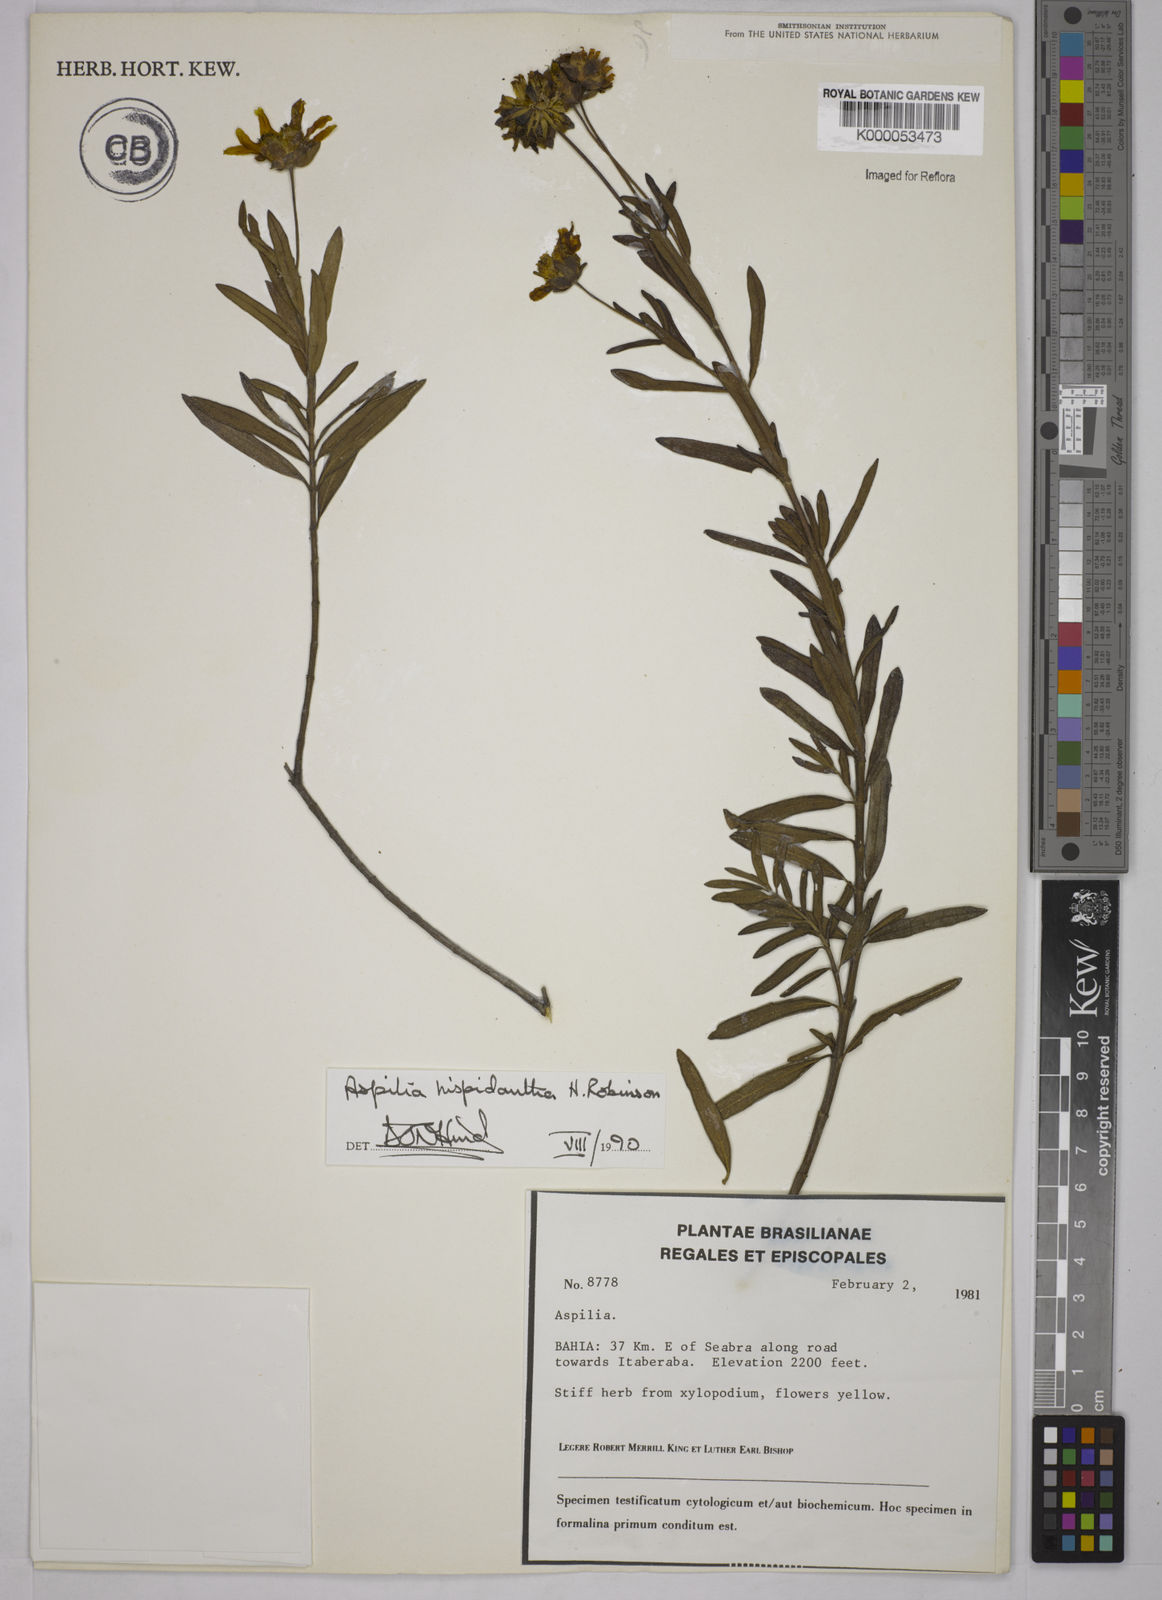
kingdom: Plantae
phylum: Tracheophyta
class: Magnoliopsida
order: Asterales
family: Asteraceae
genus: Wedelia
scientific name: Wedelia subalpestris
